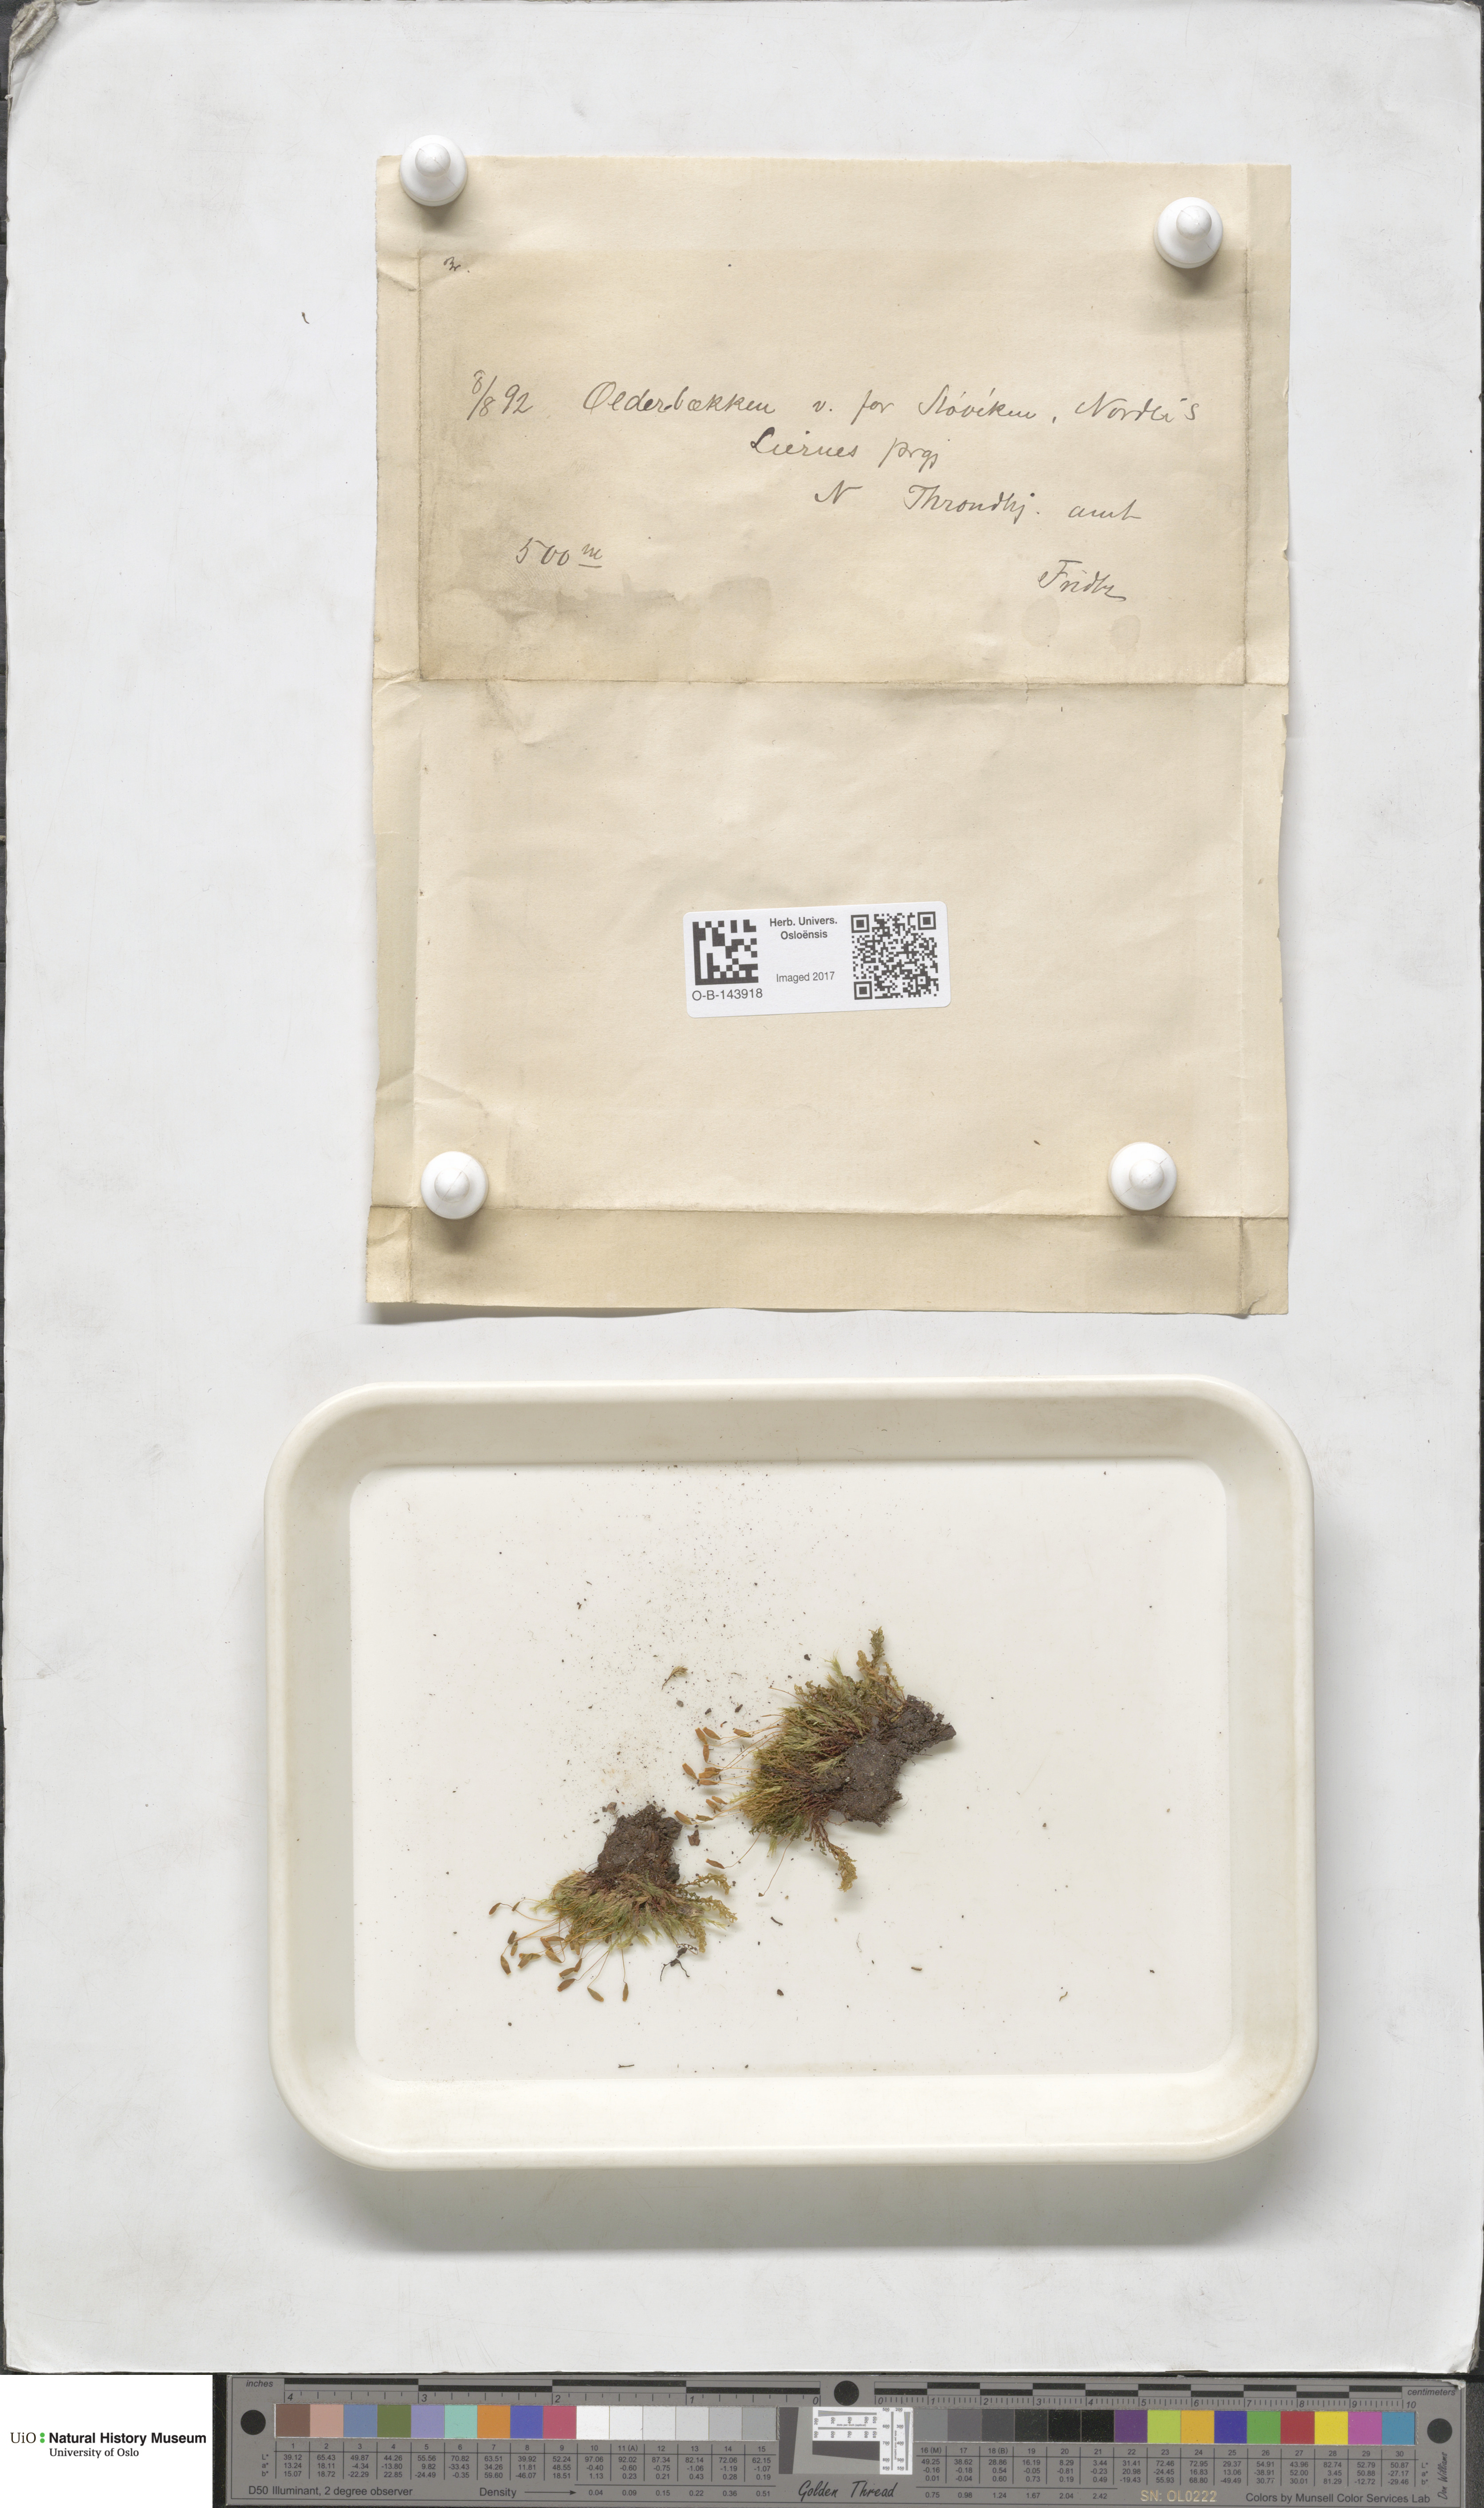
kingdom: Plantae
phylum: Bryophyta
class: Bryopsida
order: Bryales
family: Bryaceae
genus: Bryum
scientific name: Bryum
